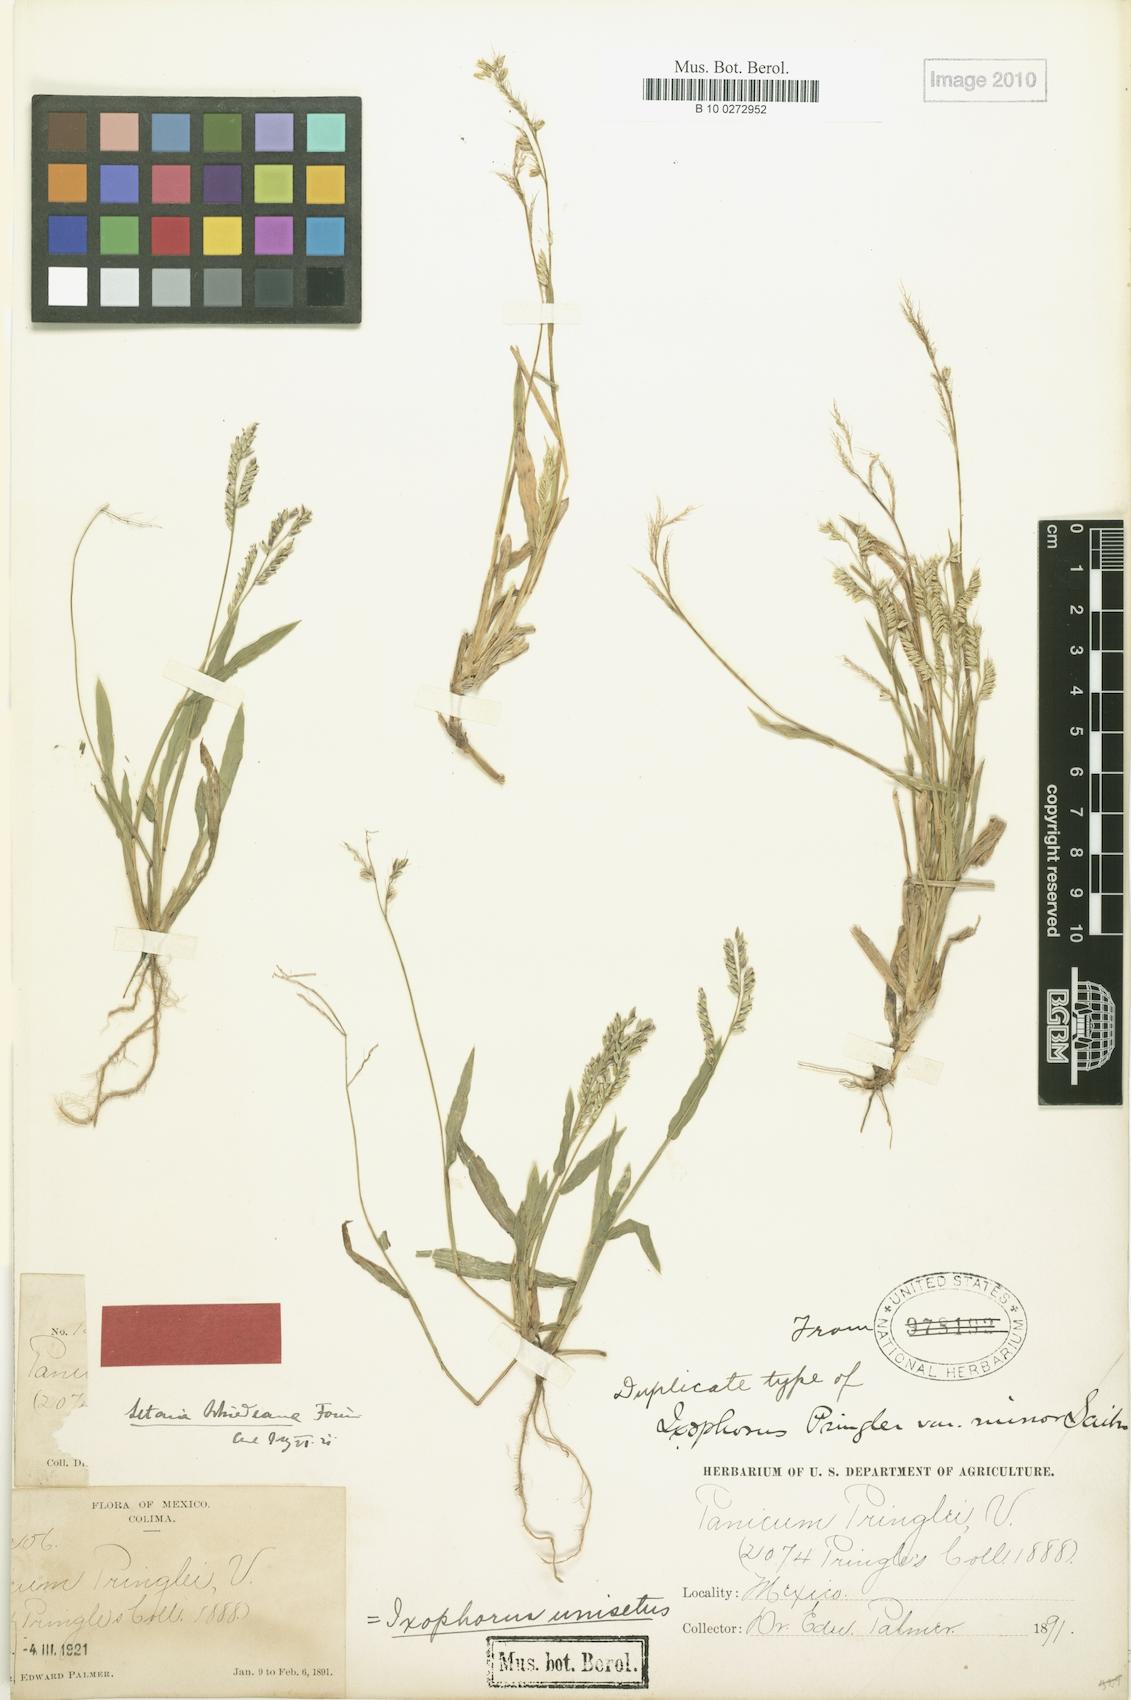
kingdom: Plantae
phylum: Tracheophyta
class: Liliopsida
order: Poales
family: Poaceae
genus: Ixophorus
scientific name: Ixophorus unisetus
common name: Crane grass
